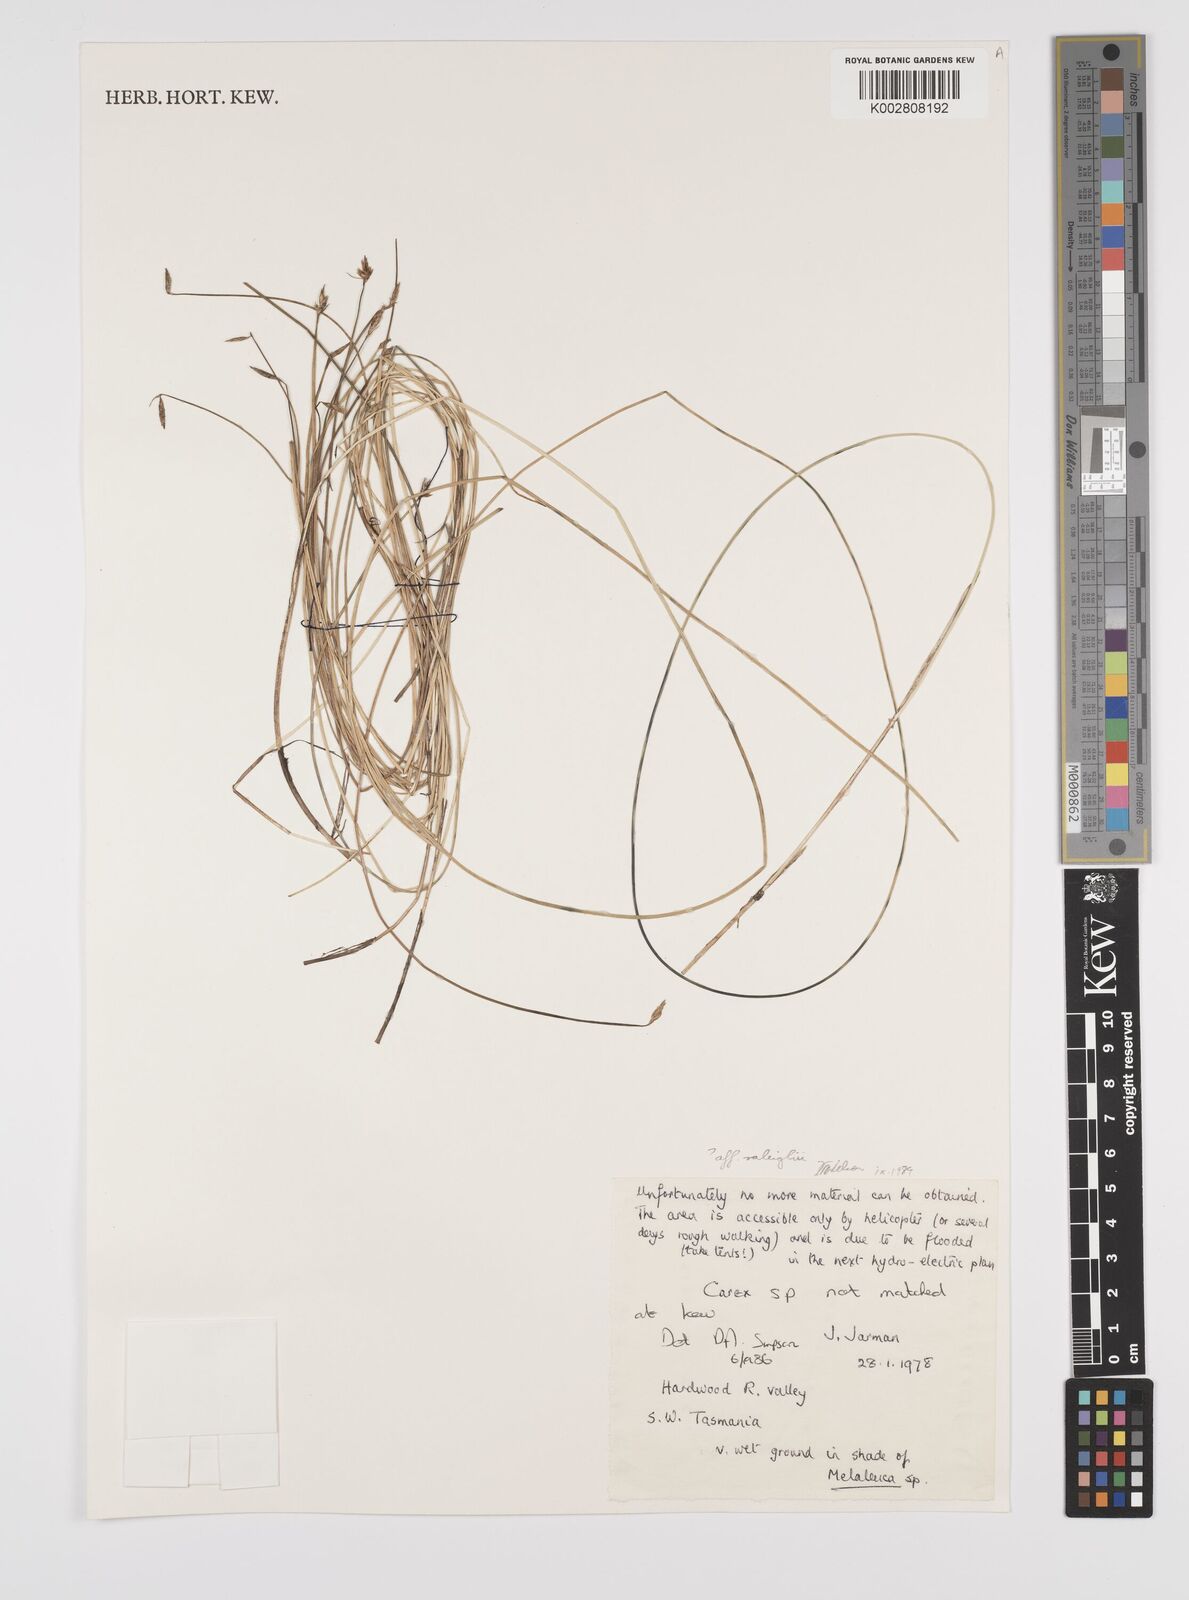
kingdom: Plantae
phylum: Tracheophyta
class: Liliopsida
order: Poales
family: Cyperaceae
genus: Carex
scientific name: Carex
